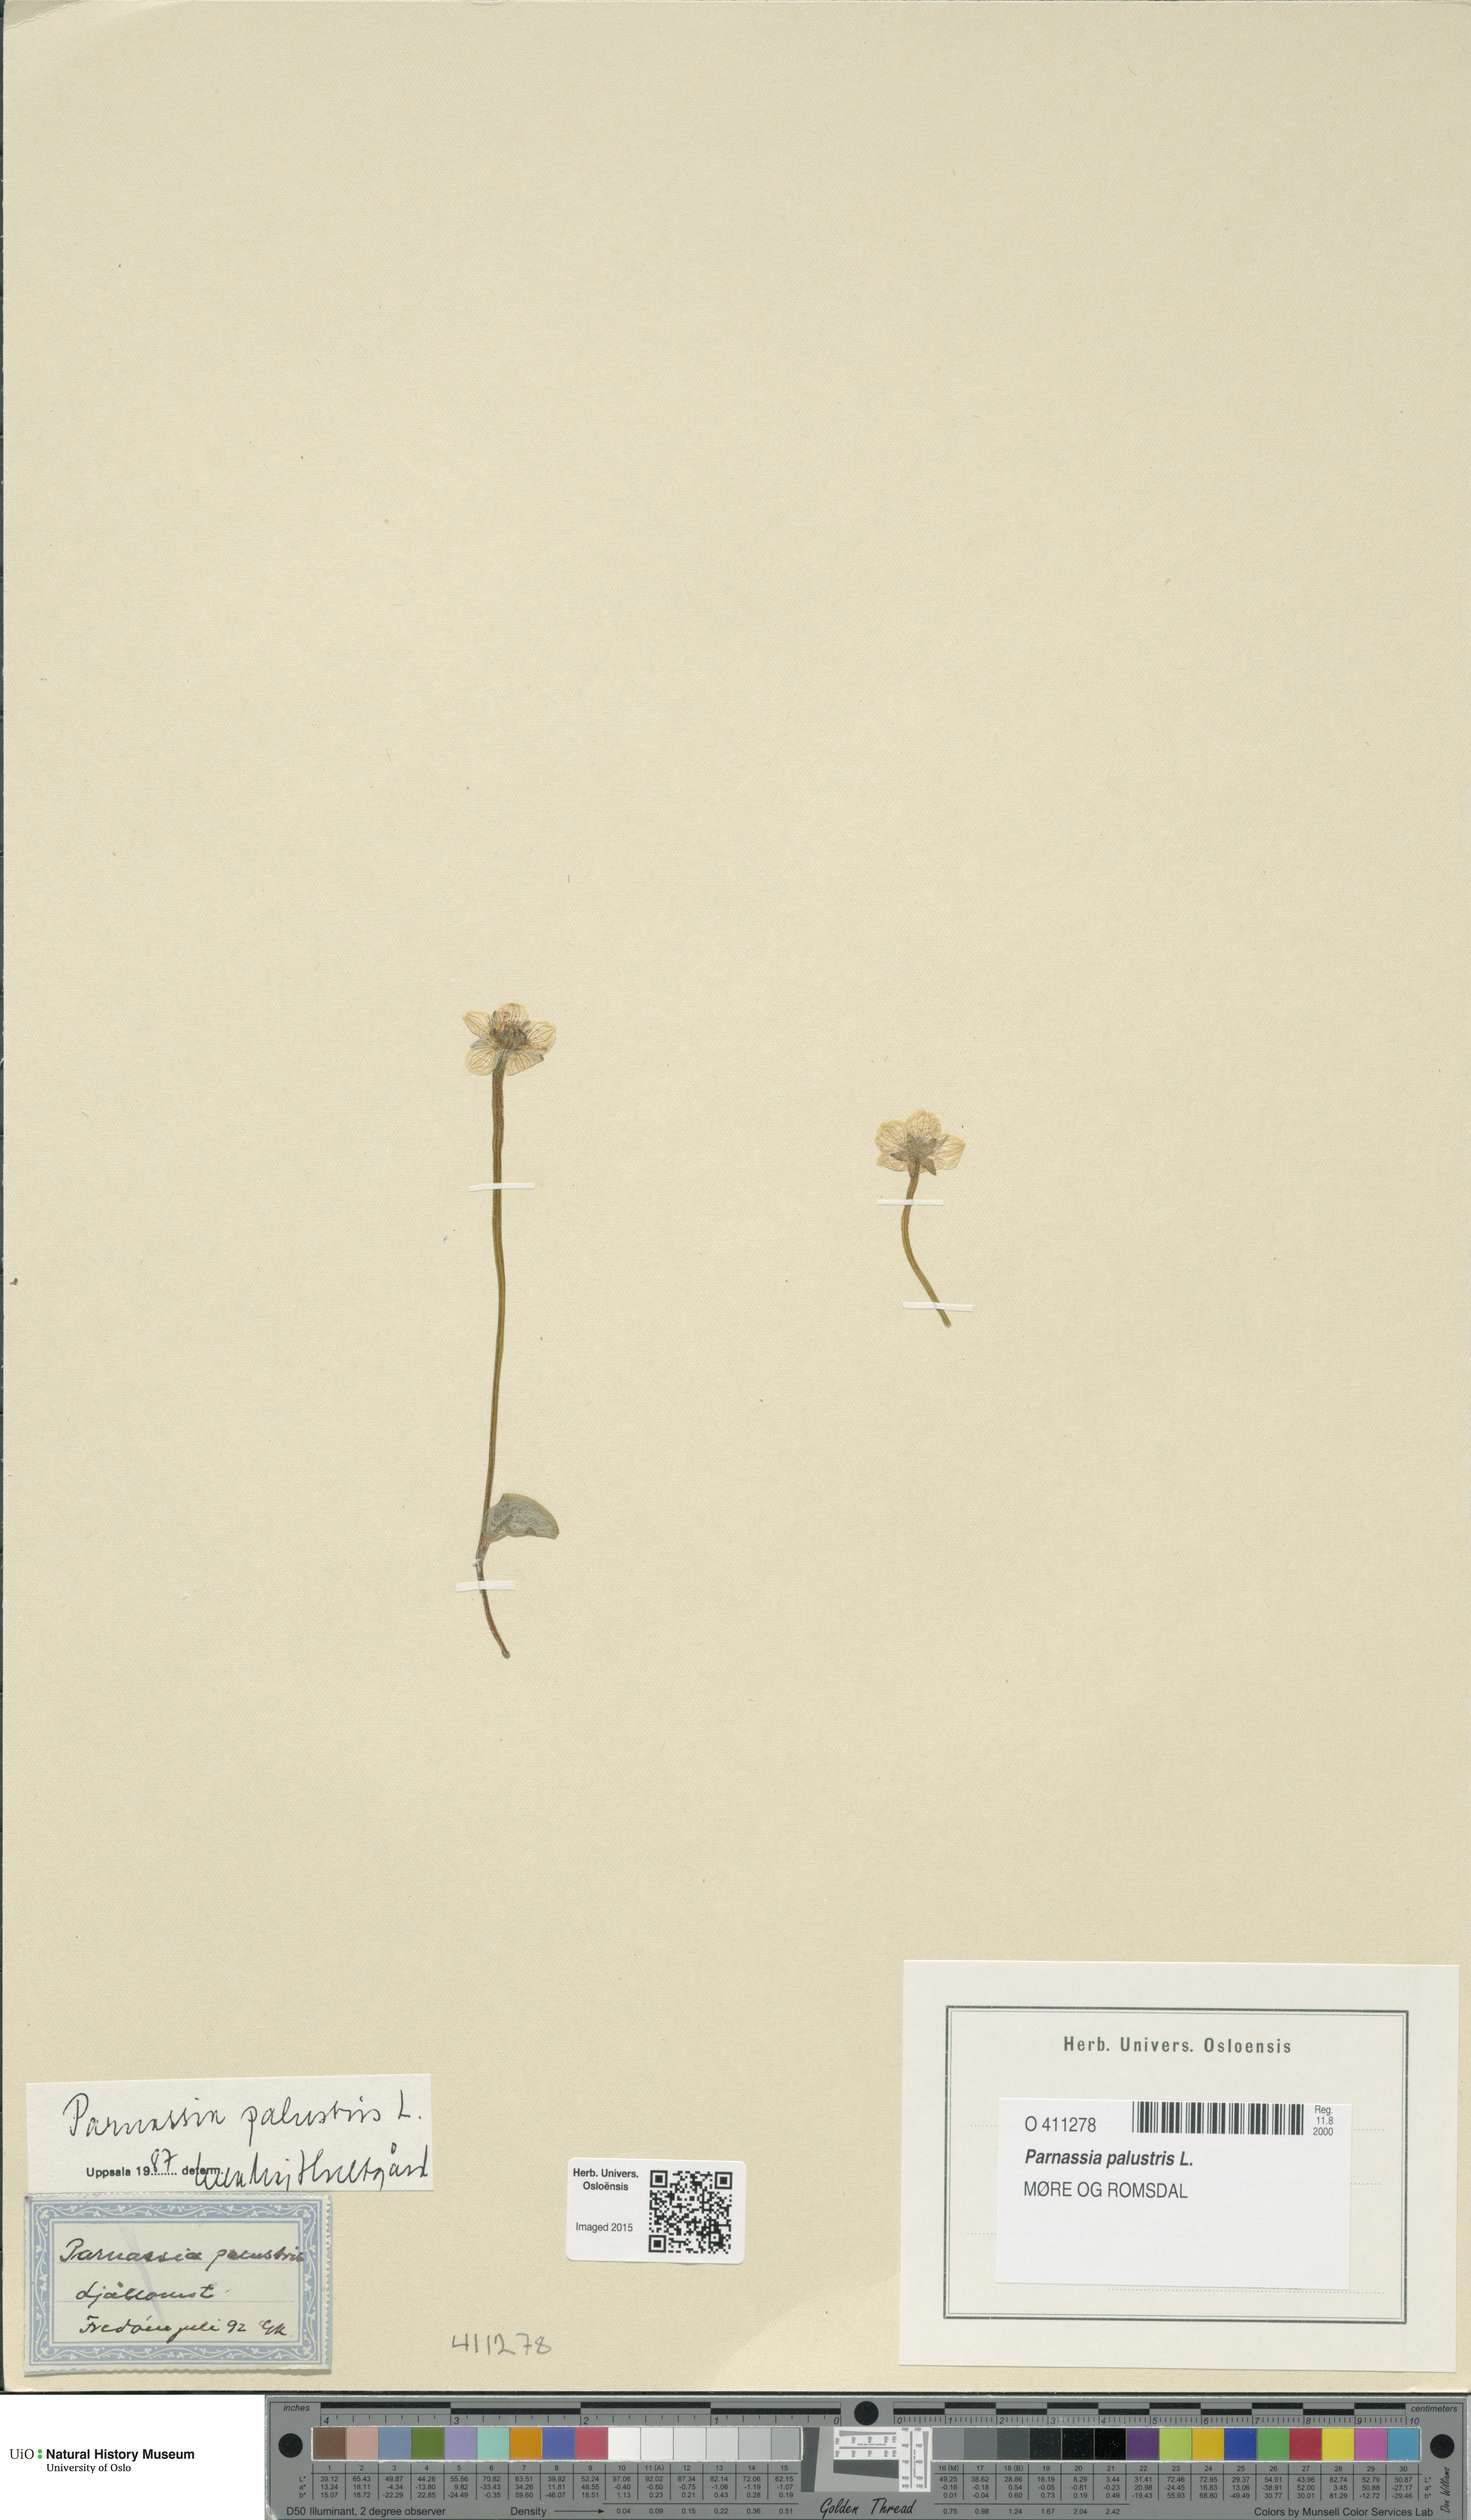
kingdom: Plantae
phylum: Tracheophyta
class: Magnoliopsida
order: Celastrales
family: Parnassiaceae
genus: Parnassia
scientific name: Parnassia palustris
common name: Grass-of-parnassus
